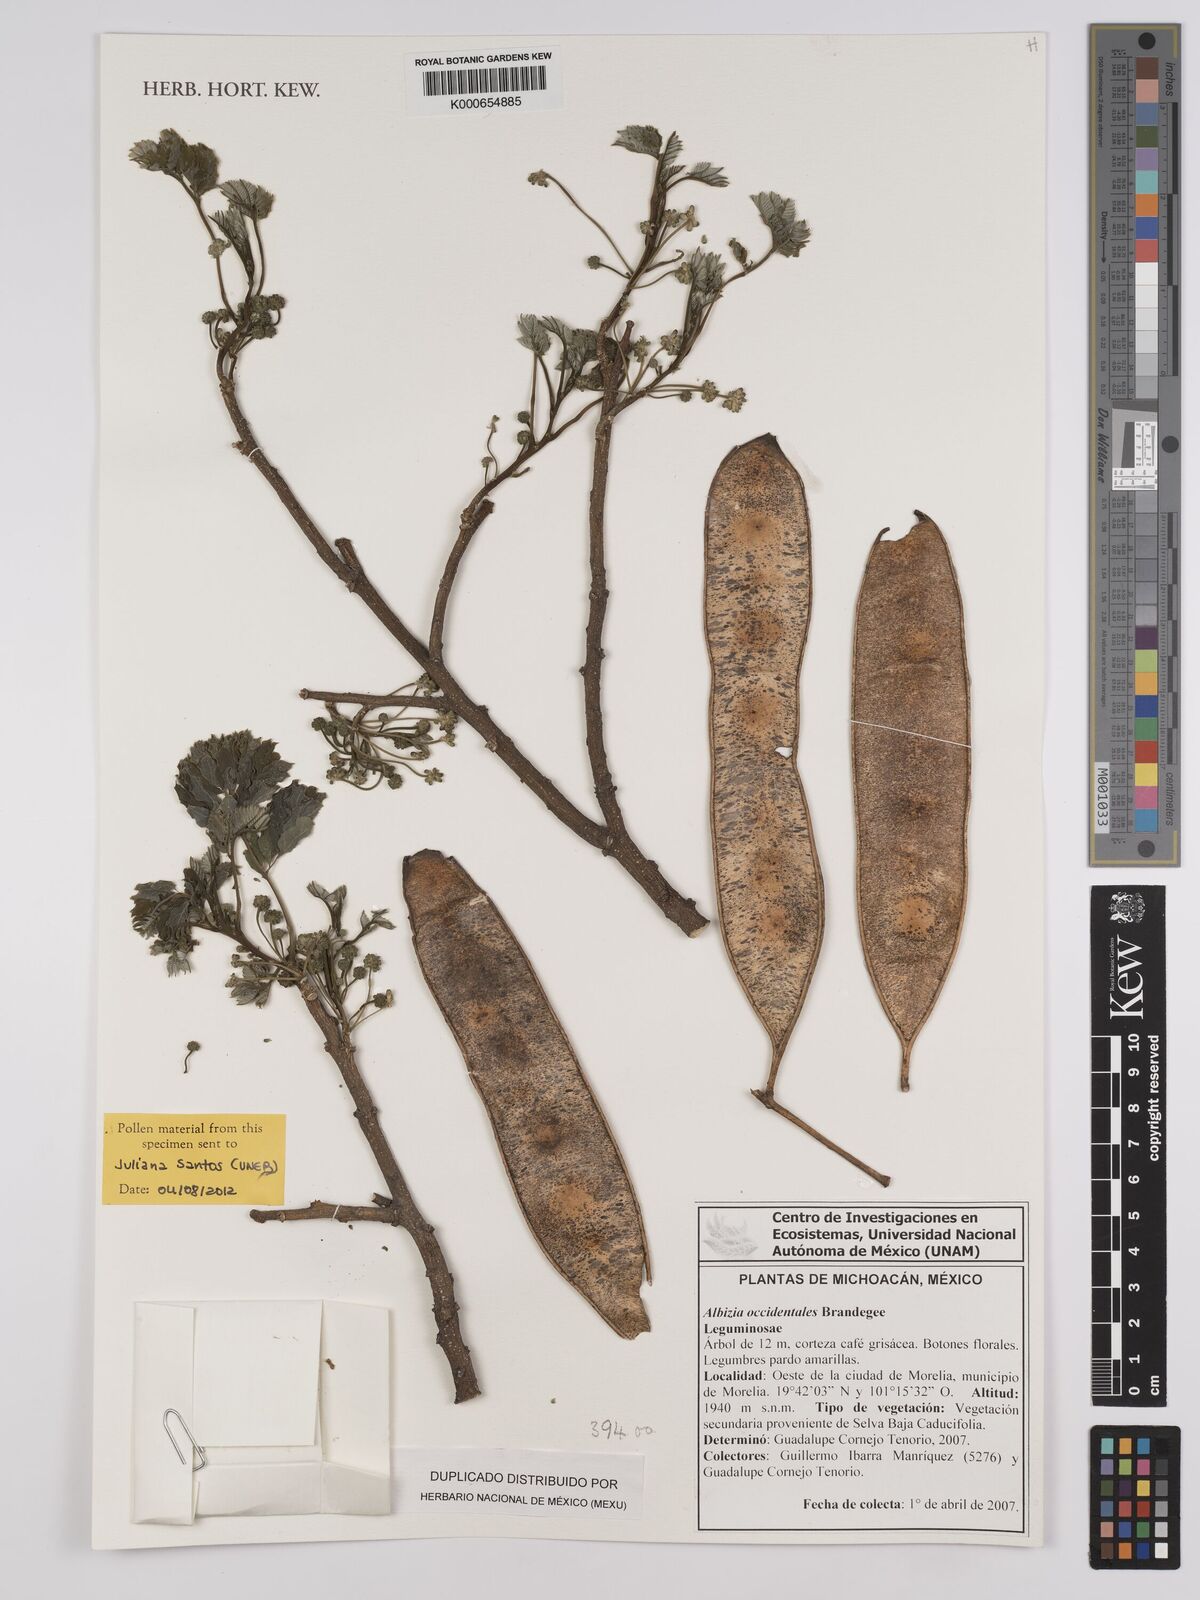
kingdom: Plantae
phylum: Tracheophyta
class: Magnoliopsida
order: Fabales
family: Fabaceae
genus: Albizia
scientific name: Albizia occidentalis
